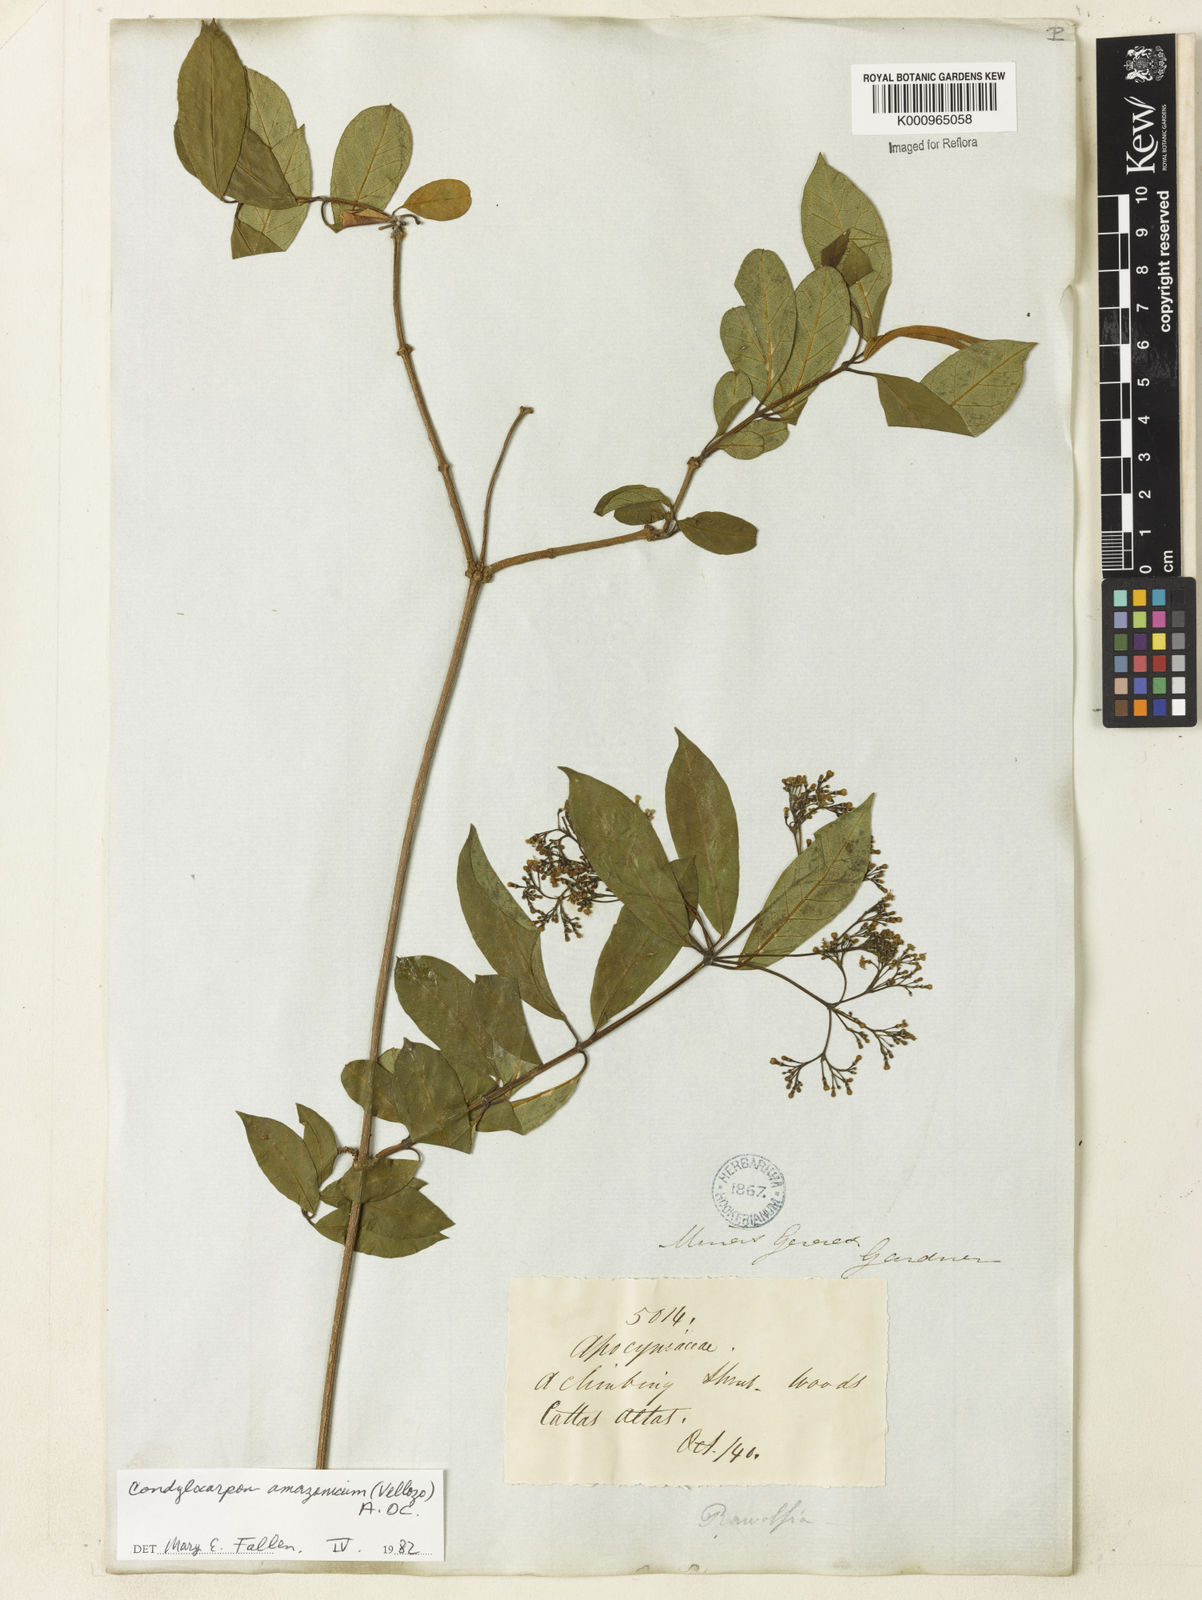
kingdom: Plantae
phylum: Tracheophyta
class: Magnoliopsida
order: Gentianales
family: Apocynaceae
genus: Condylocarpon
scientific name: Condylocarpon isthmicum
